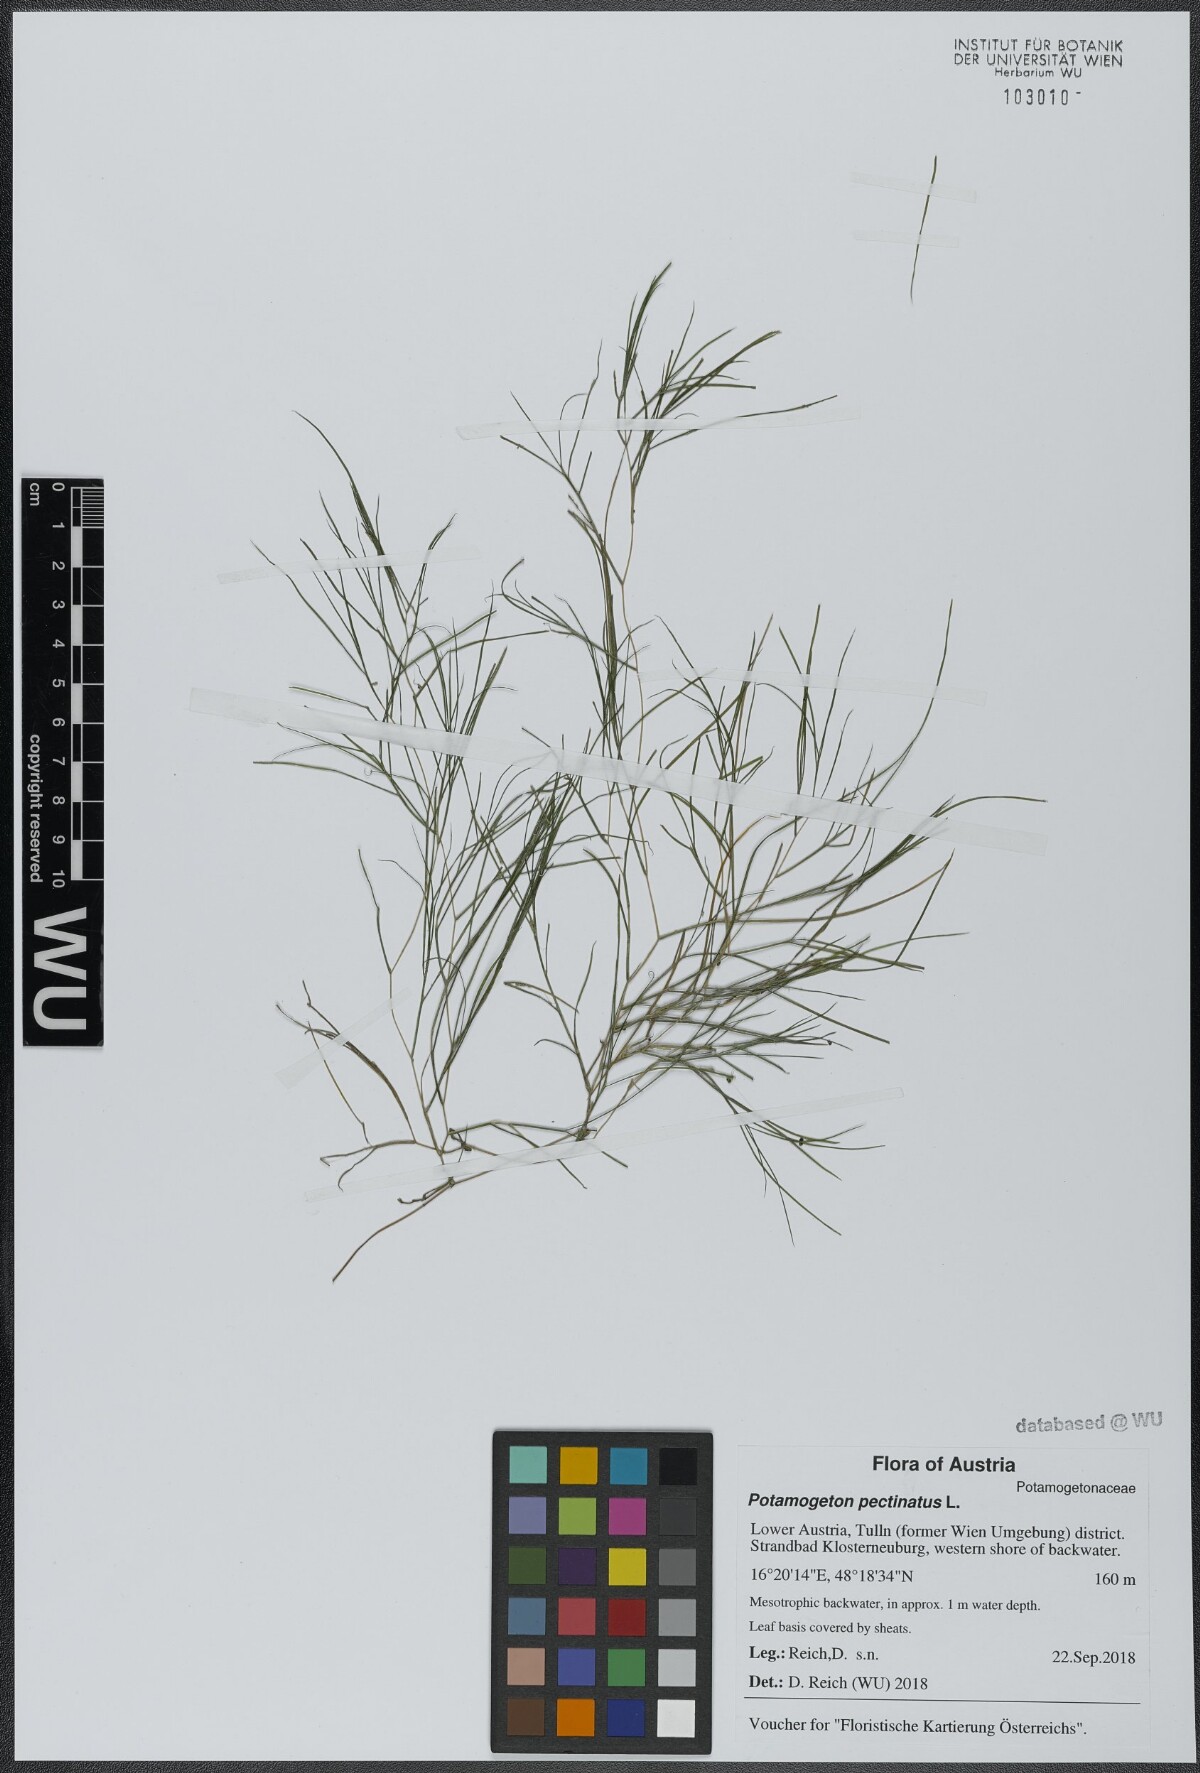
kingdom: Plantae
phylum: Tracheophyta
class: Liliopsida
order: Alismatales
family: Potamogetonaceae
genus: Stuckenia
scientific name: Stuckenia pectinata
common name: Sago pondweed
